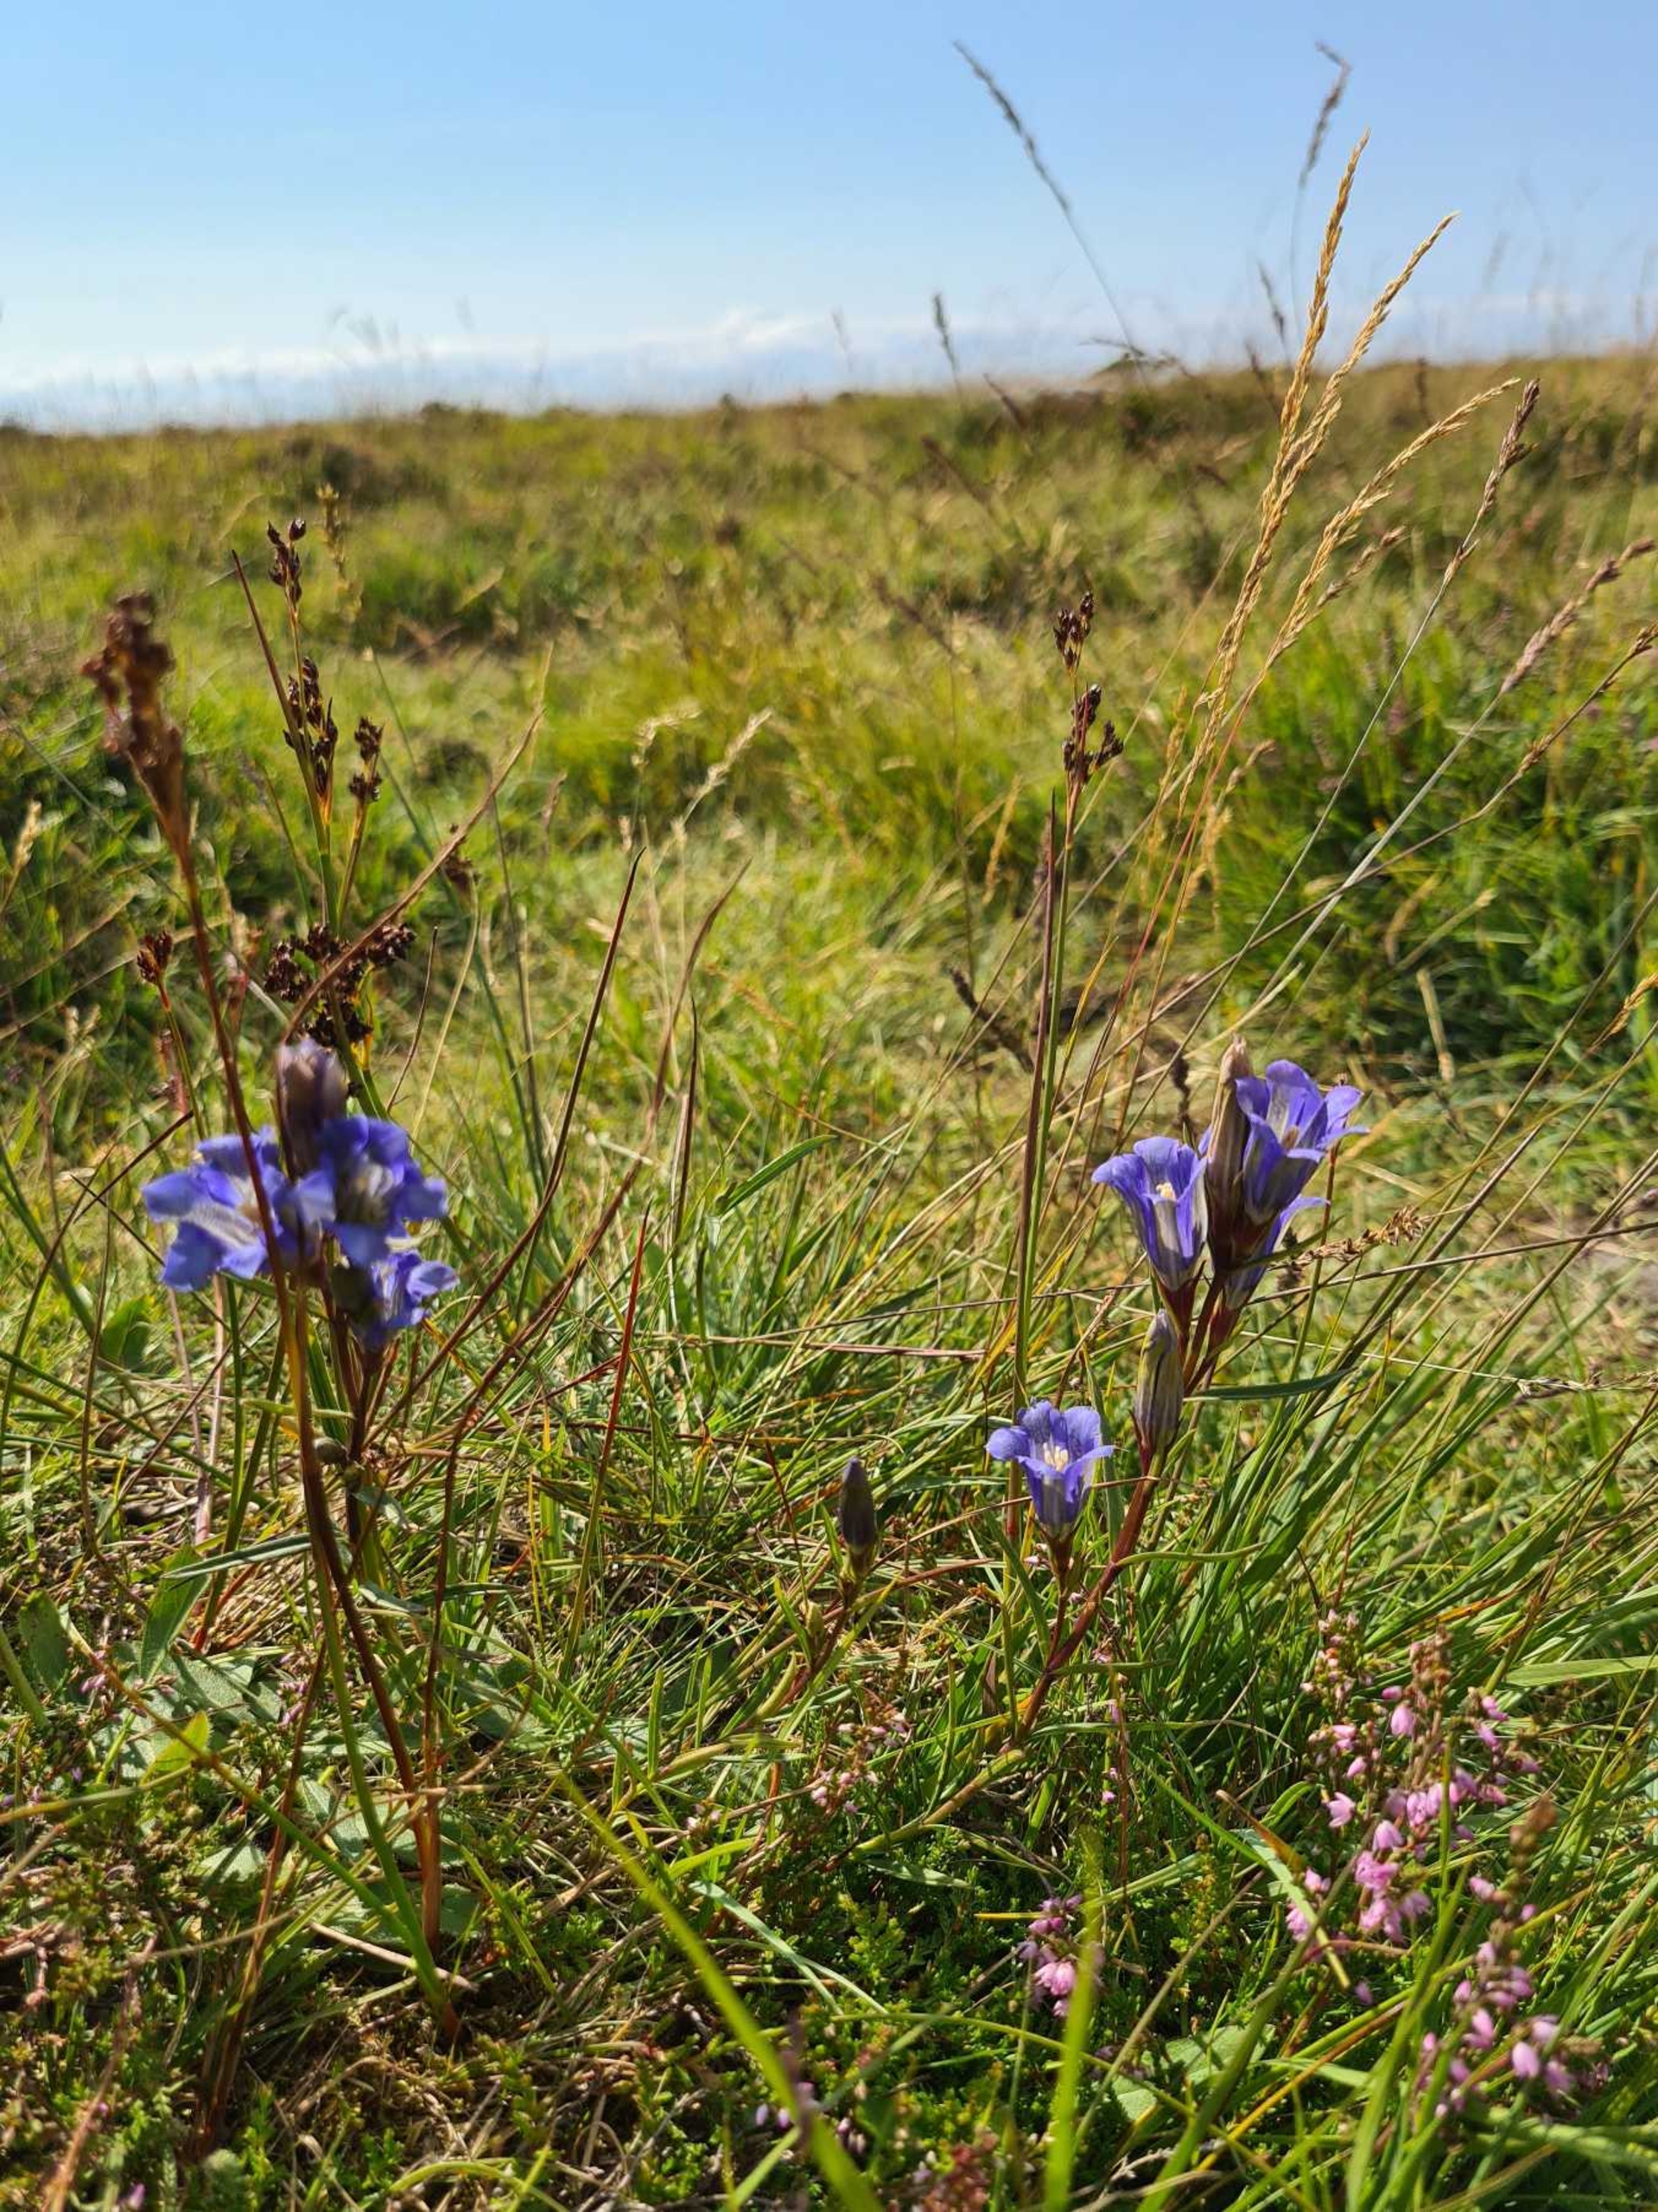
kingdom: Plantae
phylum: Tracheophyta
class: Magnoliopsida
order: Gentianales
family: Gentianaceae
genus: Gentiana
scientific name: Gentiana pneumonanthe
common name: Klokke-ensian
